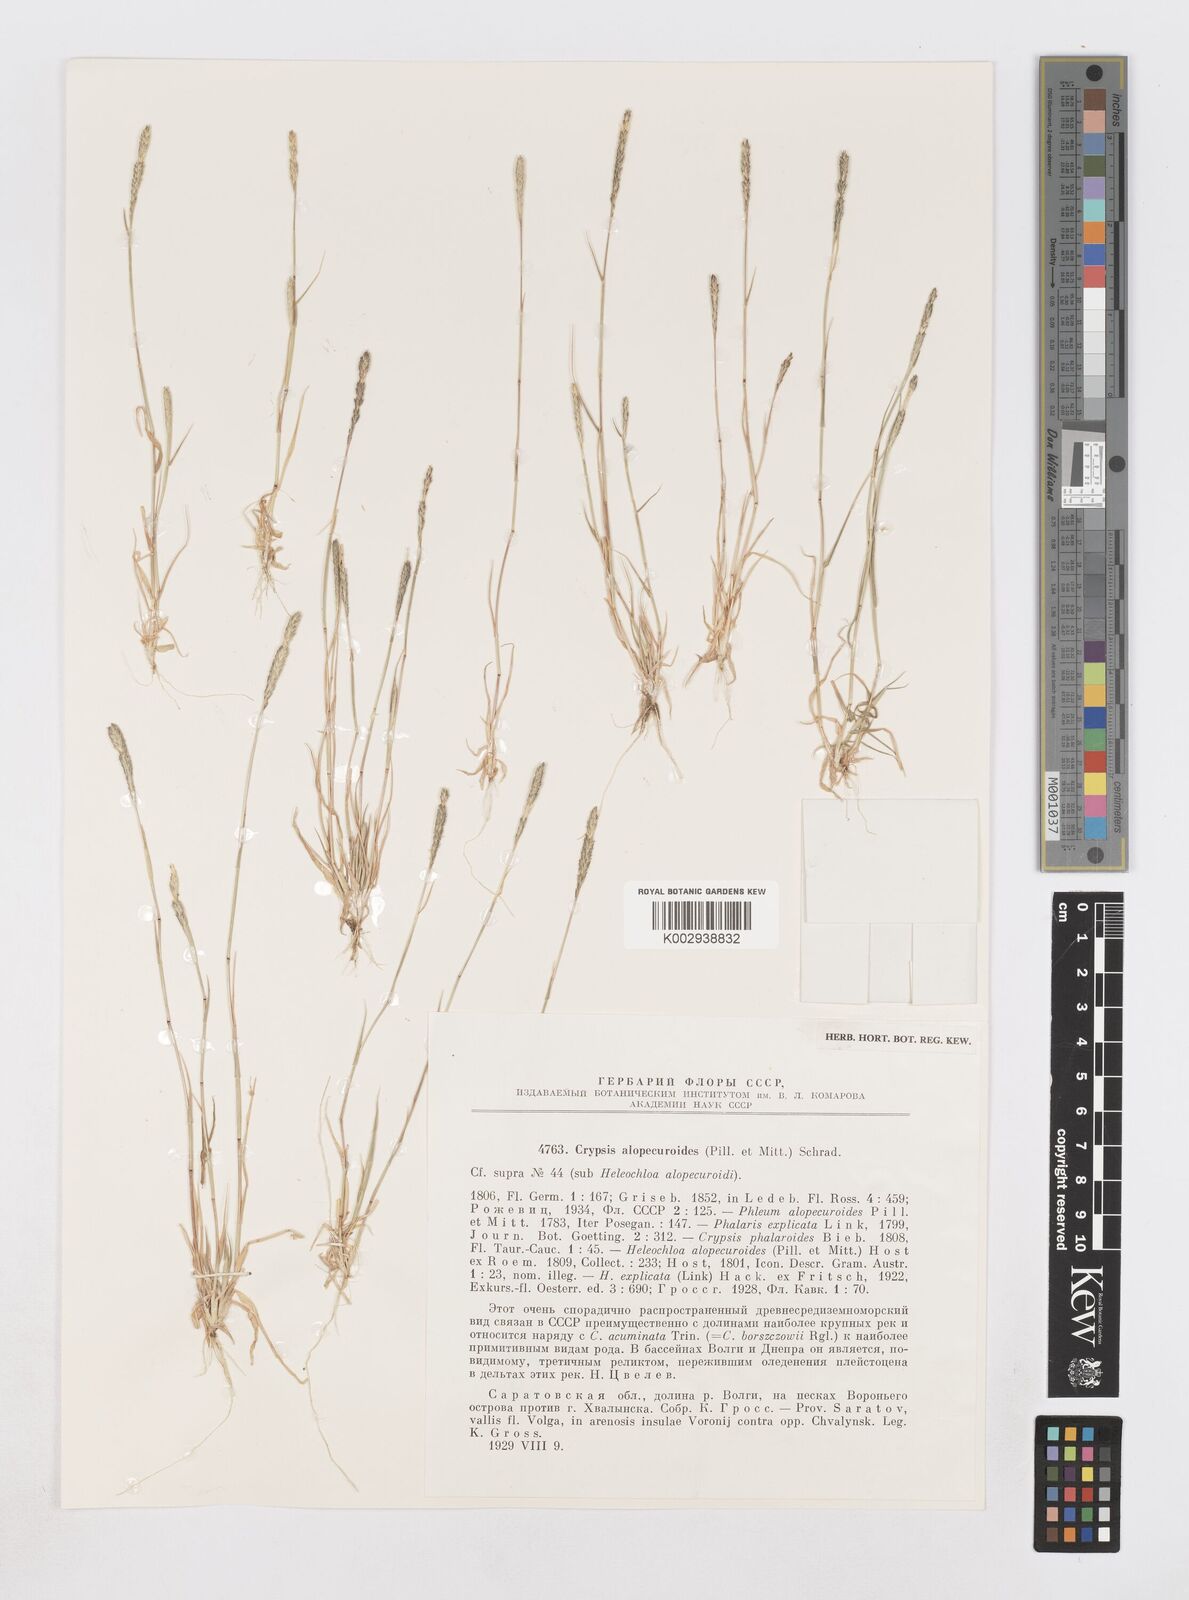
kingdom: Plantae
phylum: Tracheophyta
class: Liliopsida
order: Poales
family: Poaceae
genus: Sporobolus
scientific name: Sporobolus alopecuroides
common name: Foxtail pricklegrass
